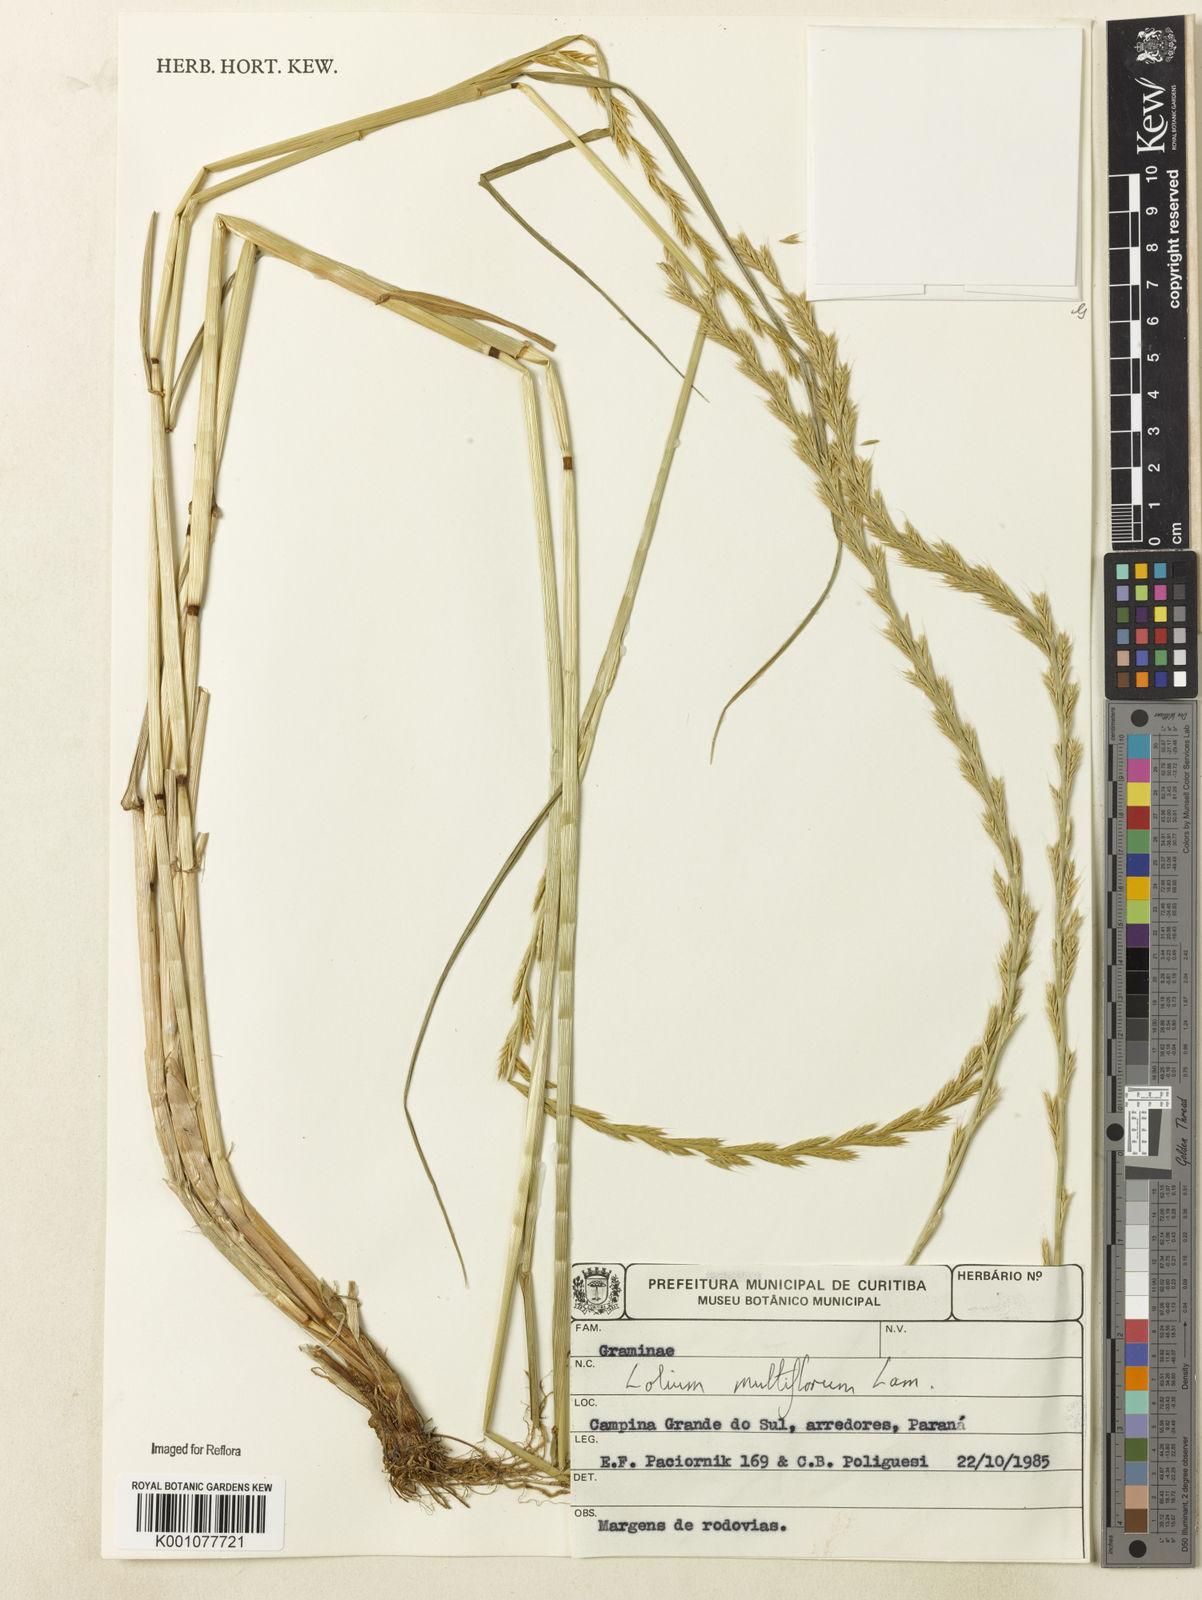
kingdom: Plantae
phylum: Tracheophyta
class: Liliopsida
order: Poales
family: Poaceae
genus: Lolium
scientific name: Lolium multiflorum
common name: Annual ryegrass
